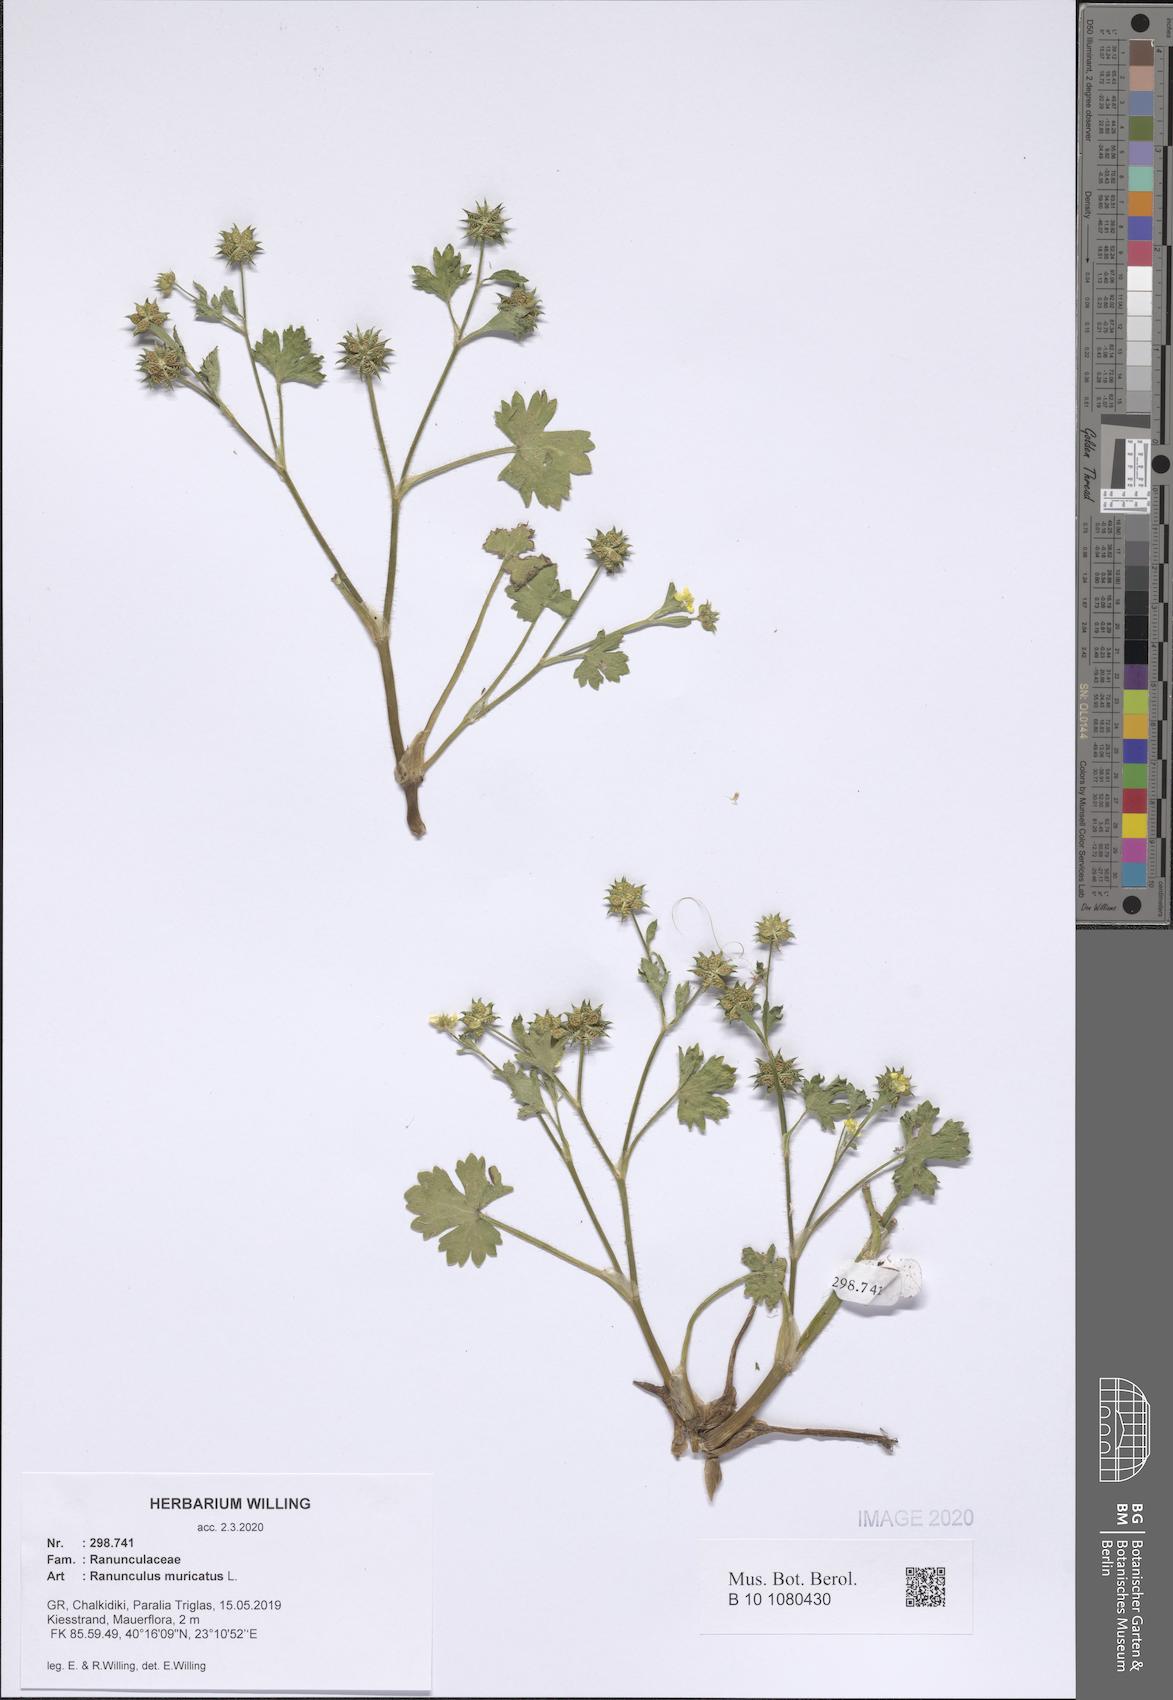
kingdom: Plantae
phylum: Tracheophyta
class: Magnoliopsida
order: Ranunculales
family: Ranunculaceae
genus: Ranunculus
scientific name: Ranunculus muricatus
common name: Rough-fruited buttercup
